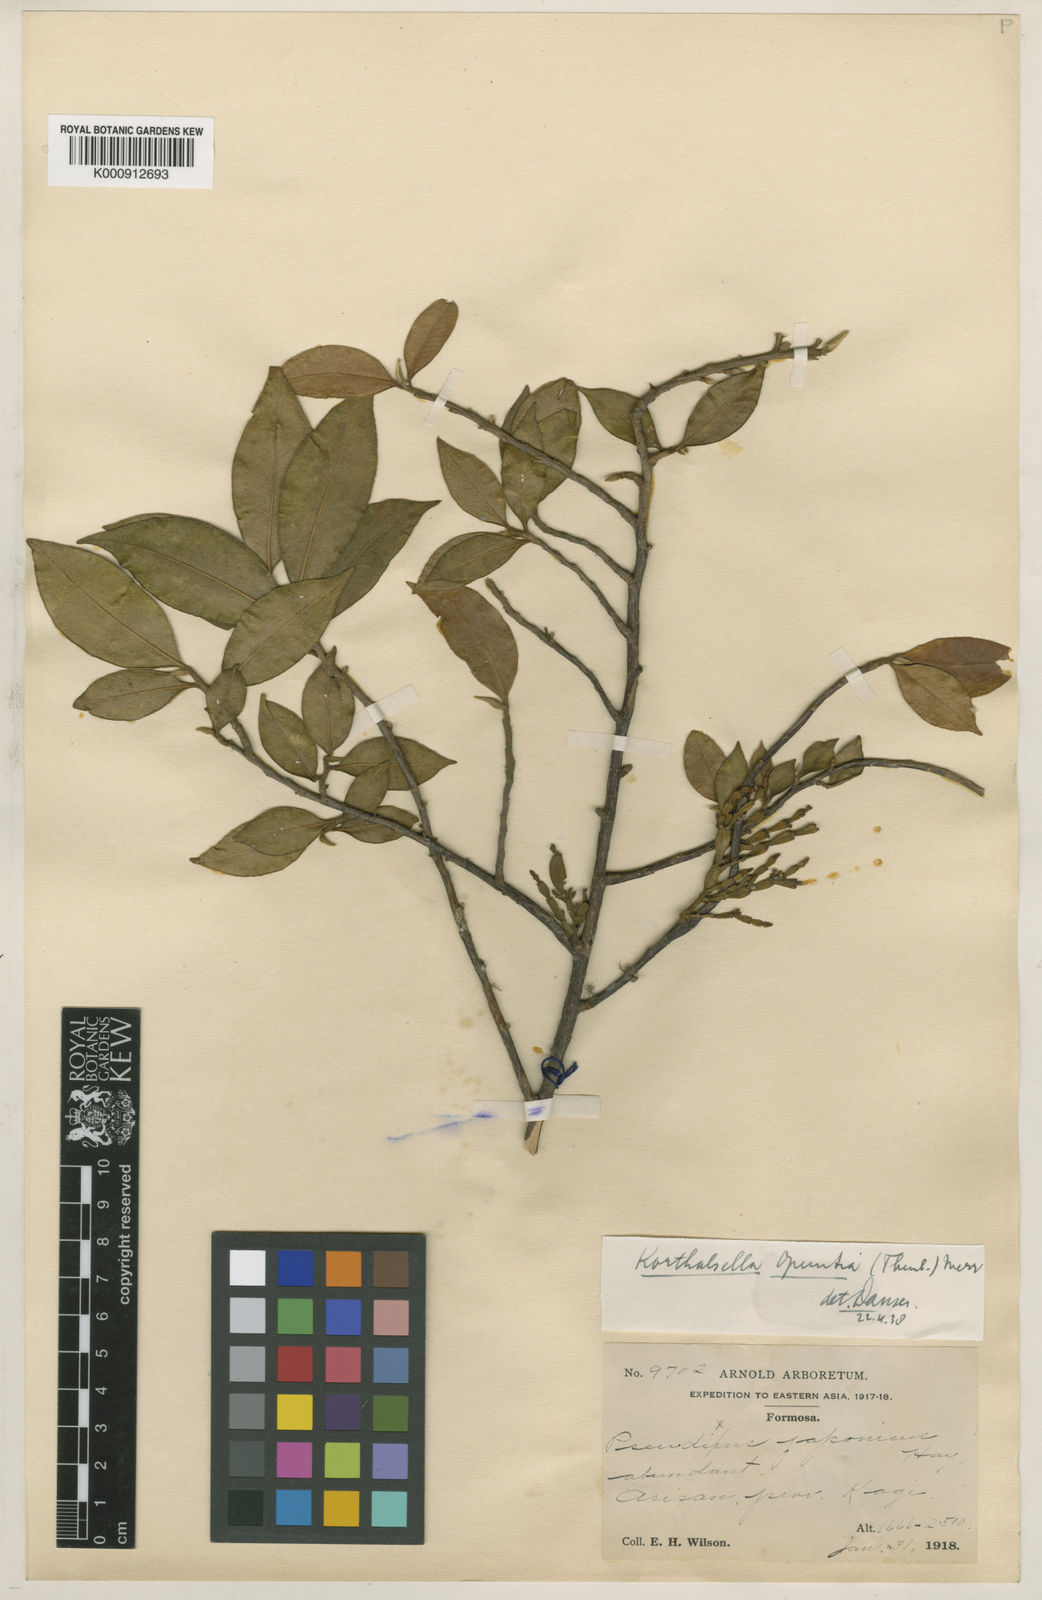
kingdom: Plantae
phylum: Tracheophyta
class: Magnoliopsida
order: Santalales
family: Viscaceae
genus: Korthalsella
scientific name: Korthalsella japonica
